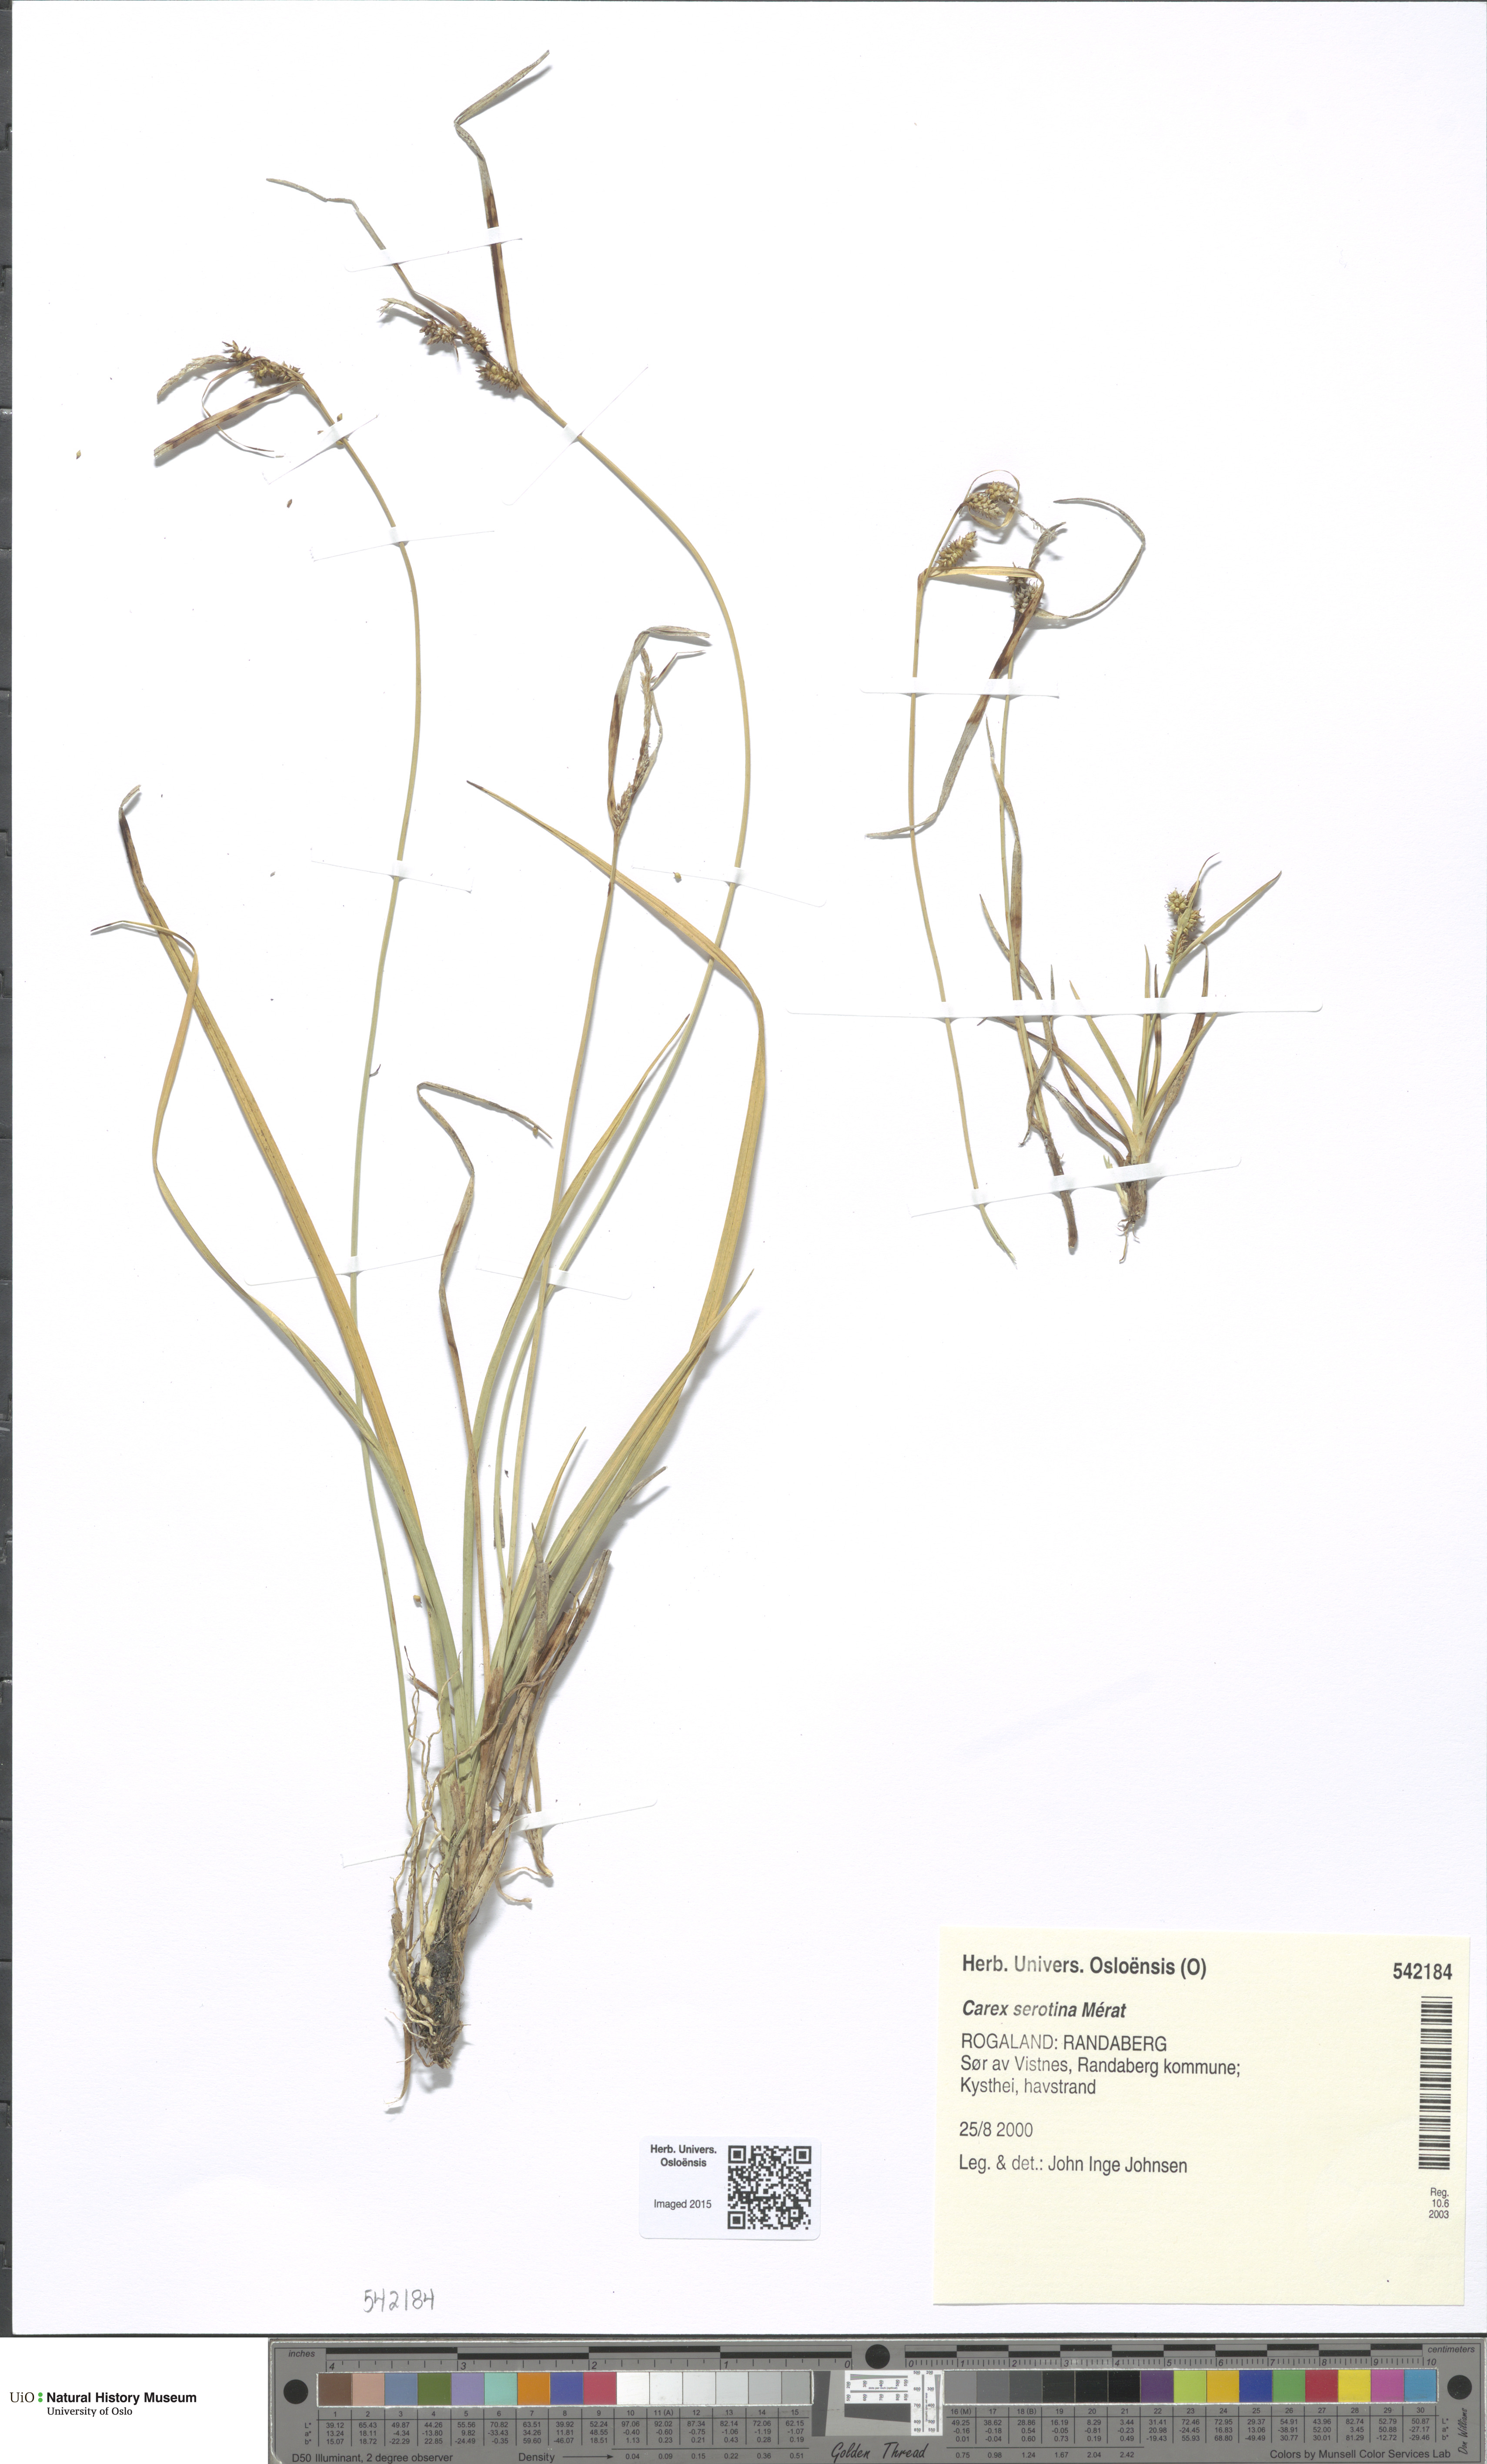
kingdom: Plantae
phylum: Tracheophyta
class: Liliopsida
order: Poales
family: Cyperaceae
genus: Carex
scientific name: Carex oederi
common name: Common & small-fruited yellow-sedge
